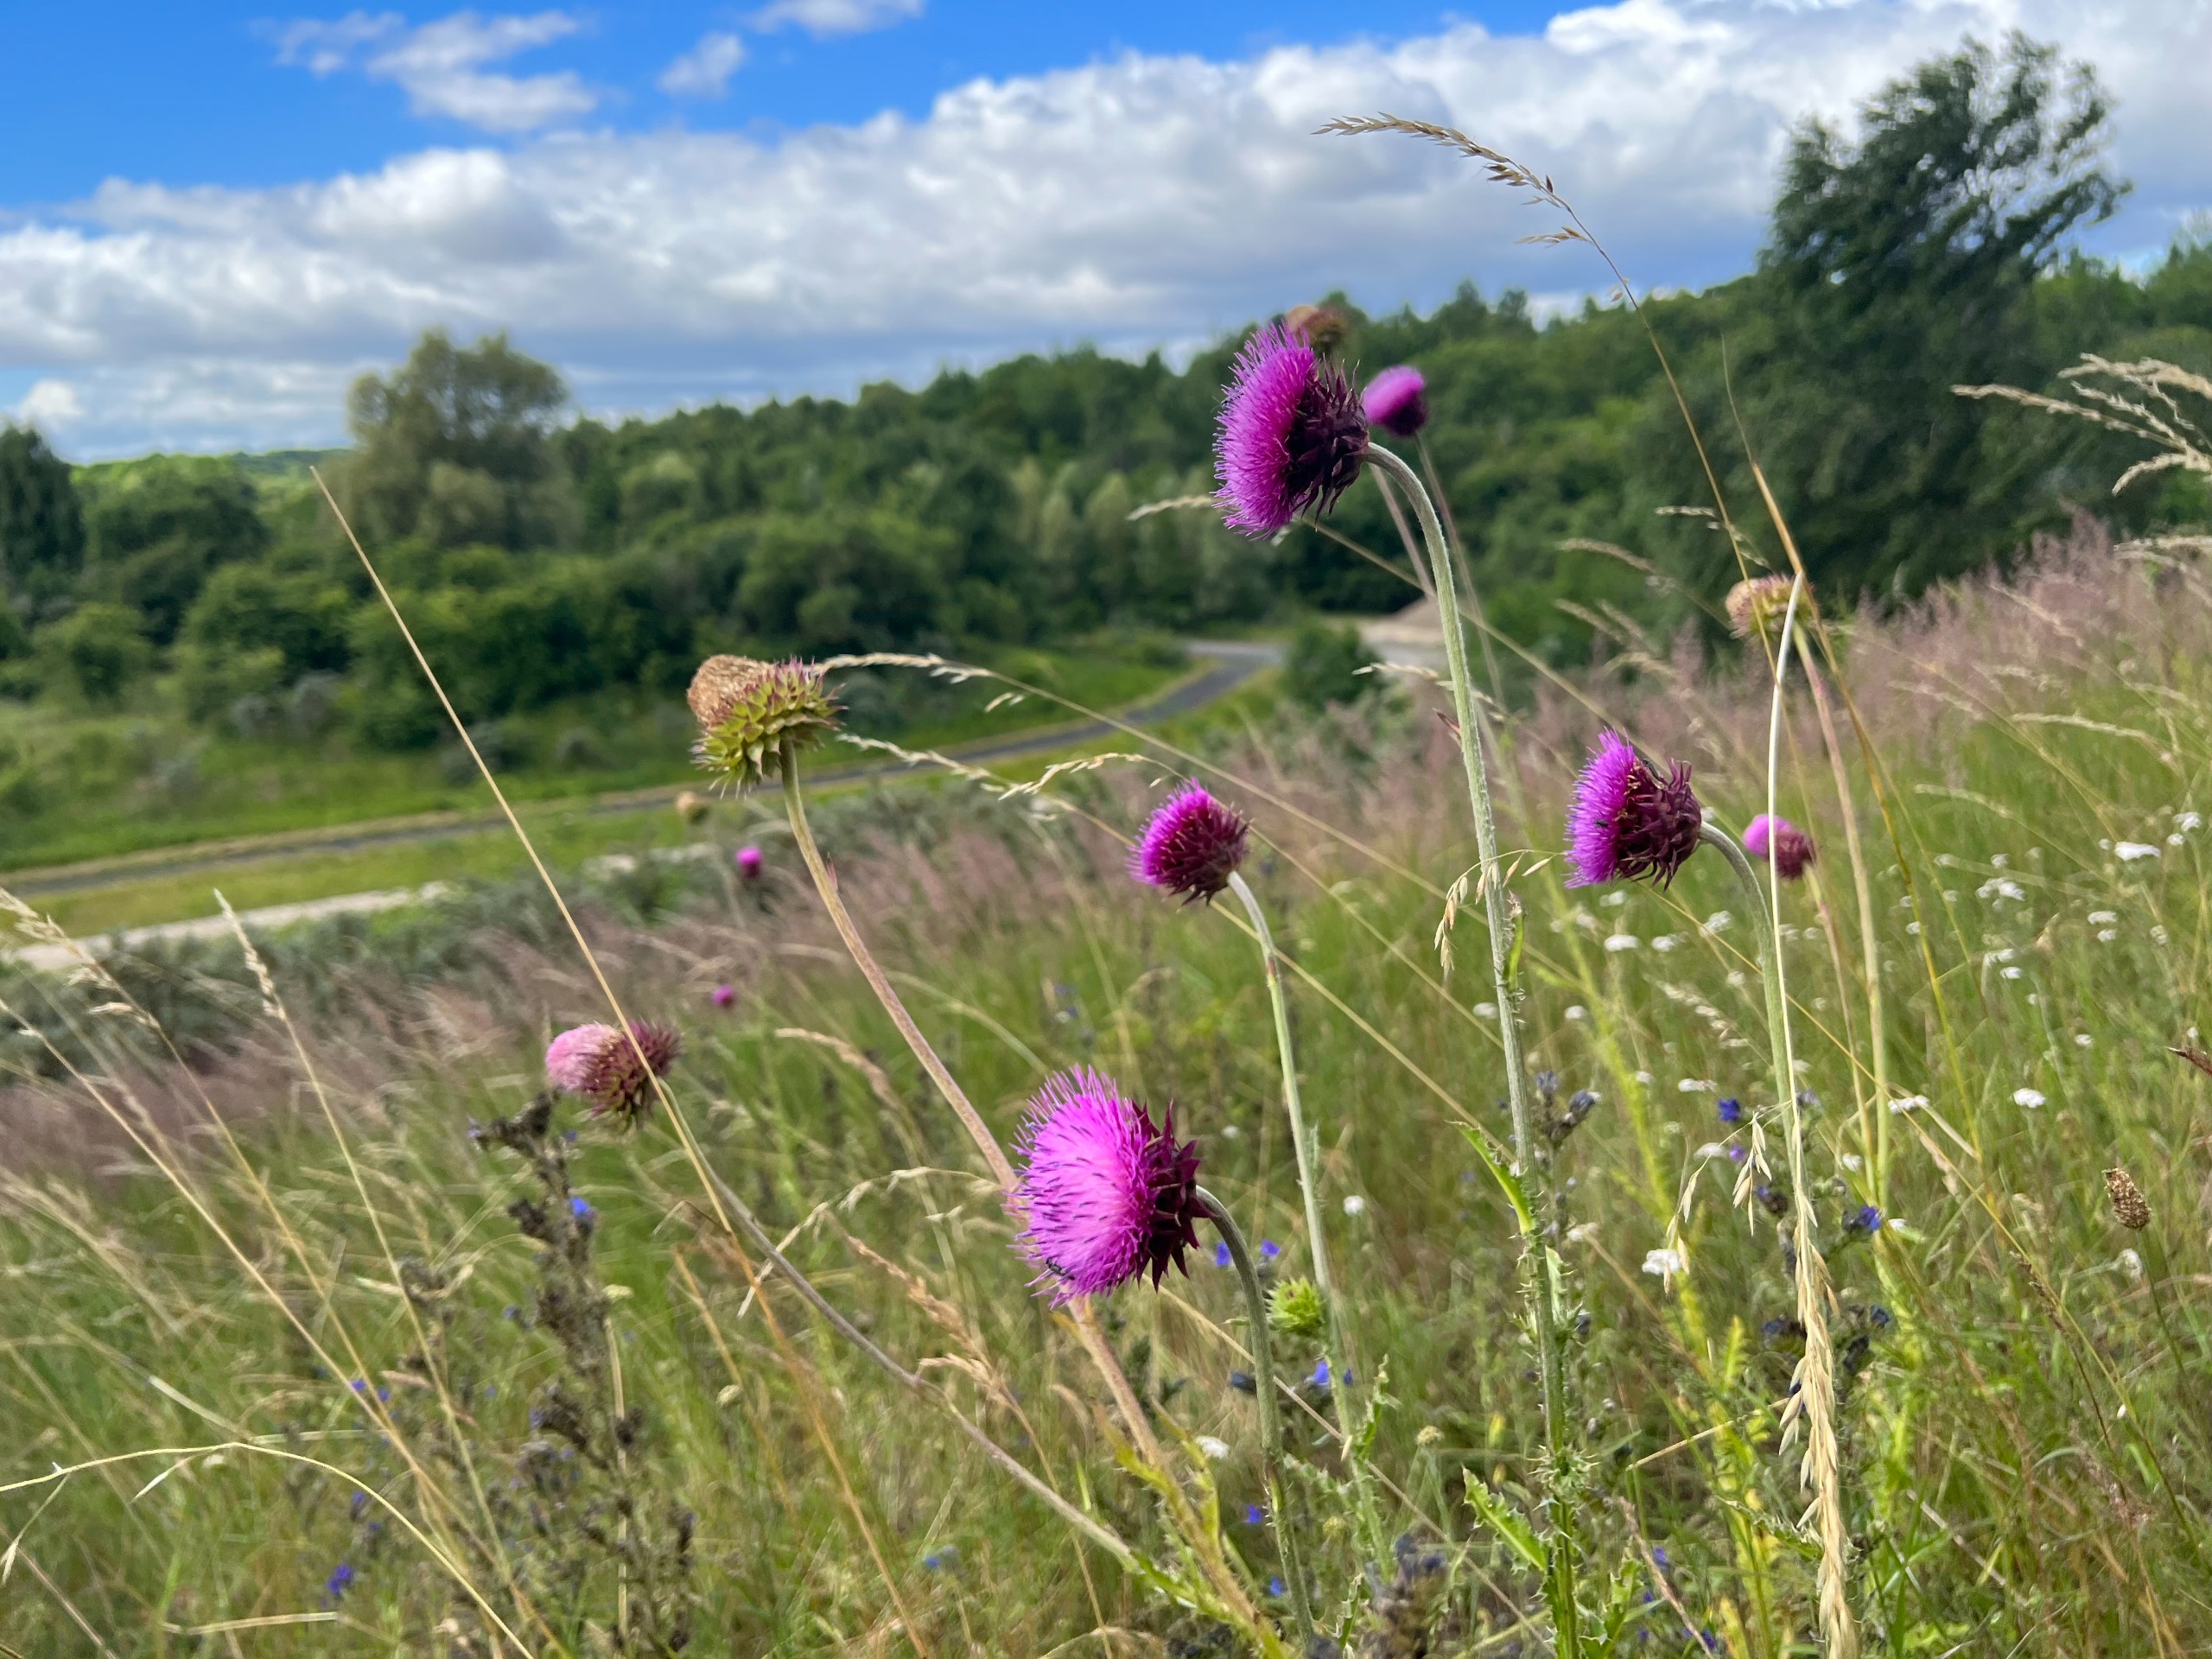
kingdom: Plantae
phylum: Tracheophyta
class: Magnoliopsida
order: Asterales
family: Asteraceae
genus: Carduus
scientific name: Carduus nutans
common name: Olymp-tidsel
